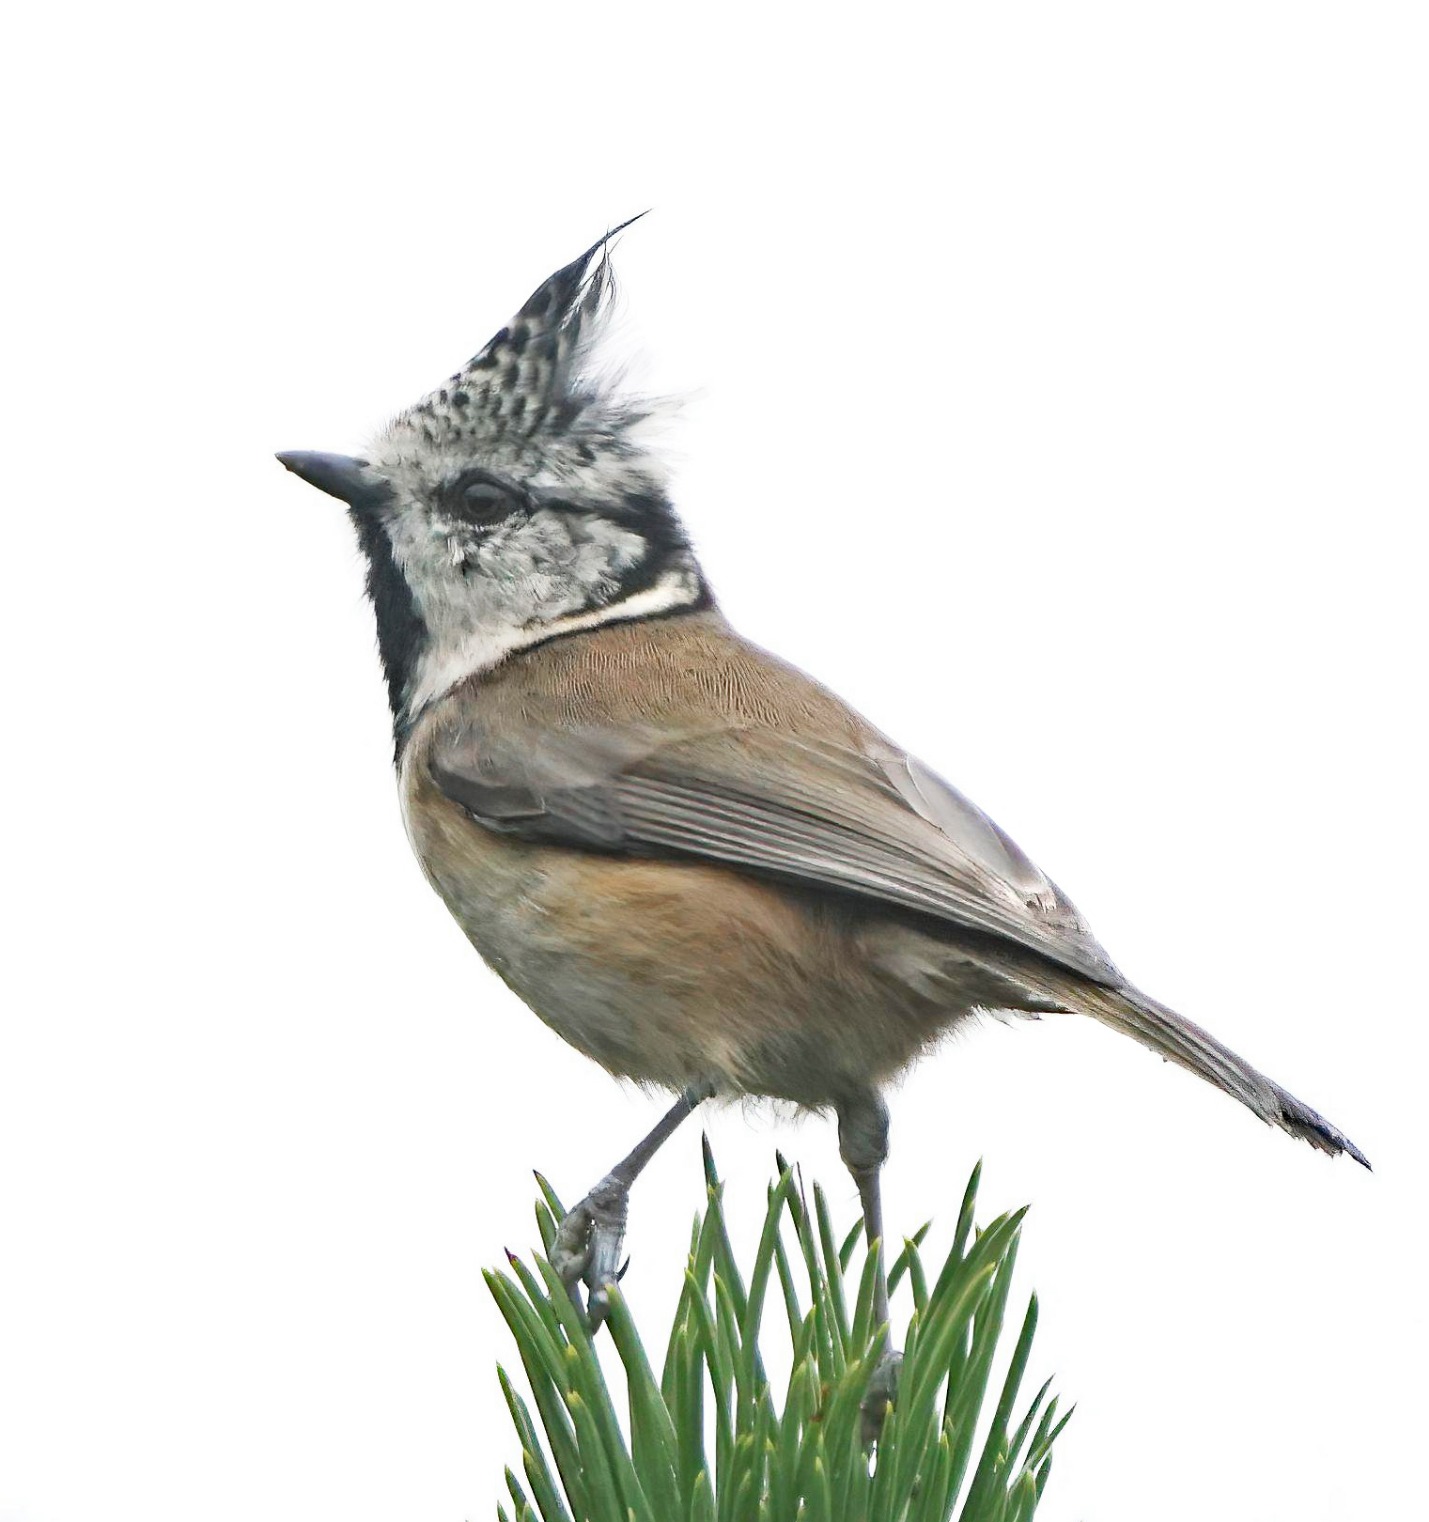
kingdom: Animalia
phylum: Chordata
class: Aves
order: Passeriformes
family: Paridae
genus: Lophophanes
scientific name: Lophophanes cristatus
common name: Topmejse
